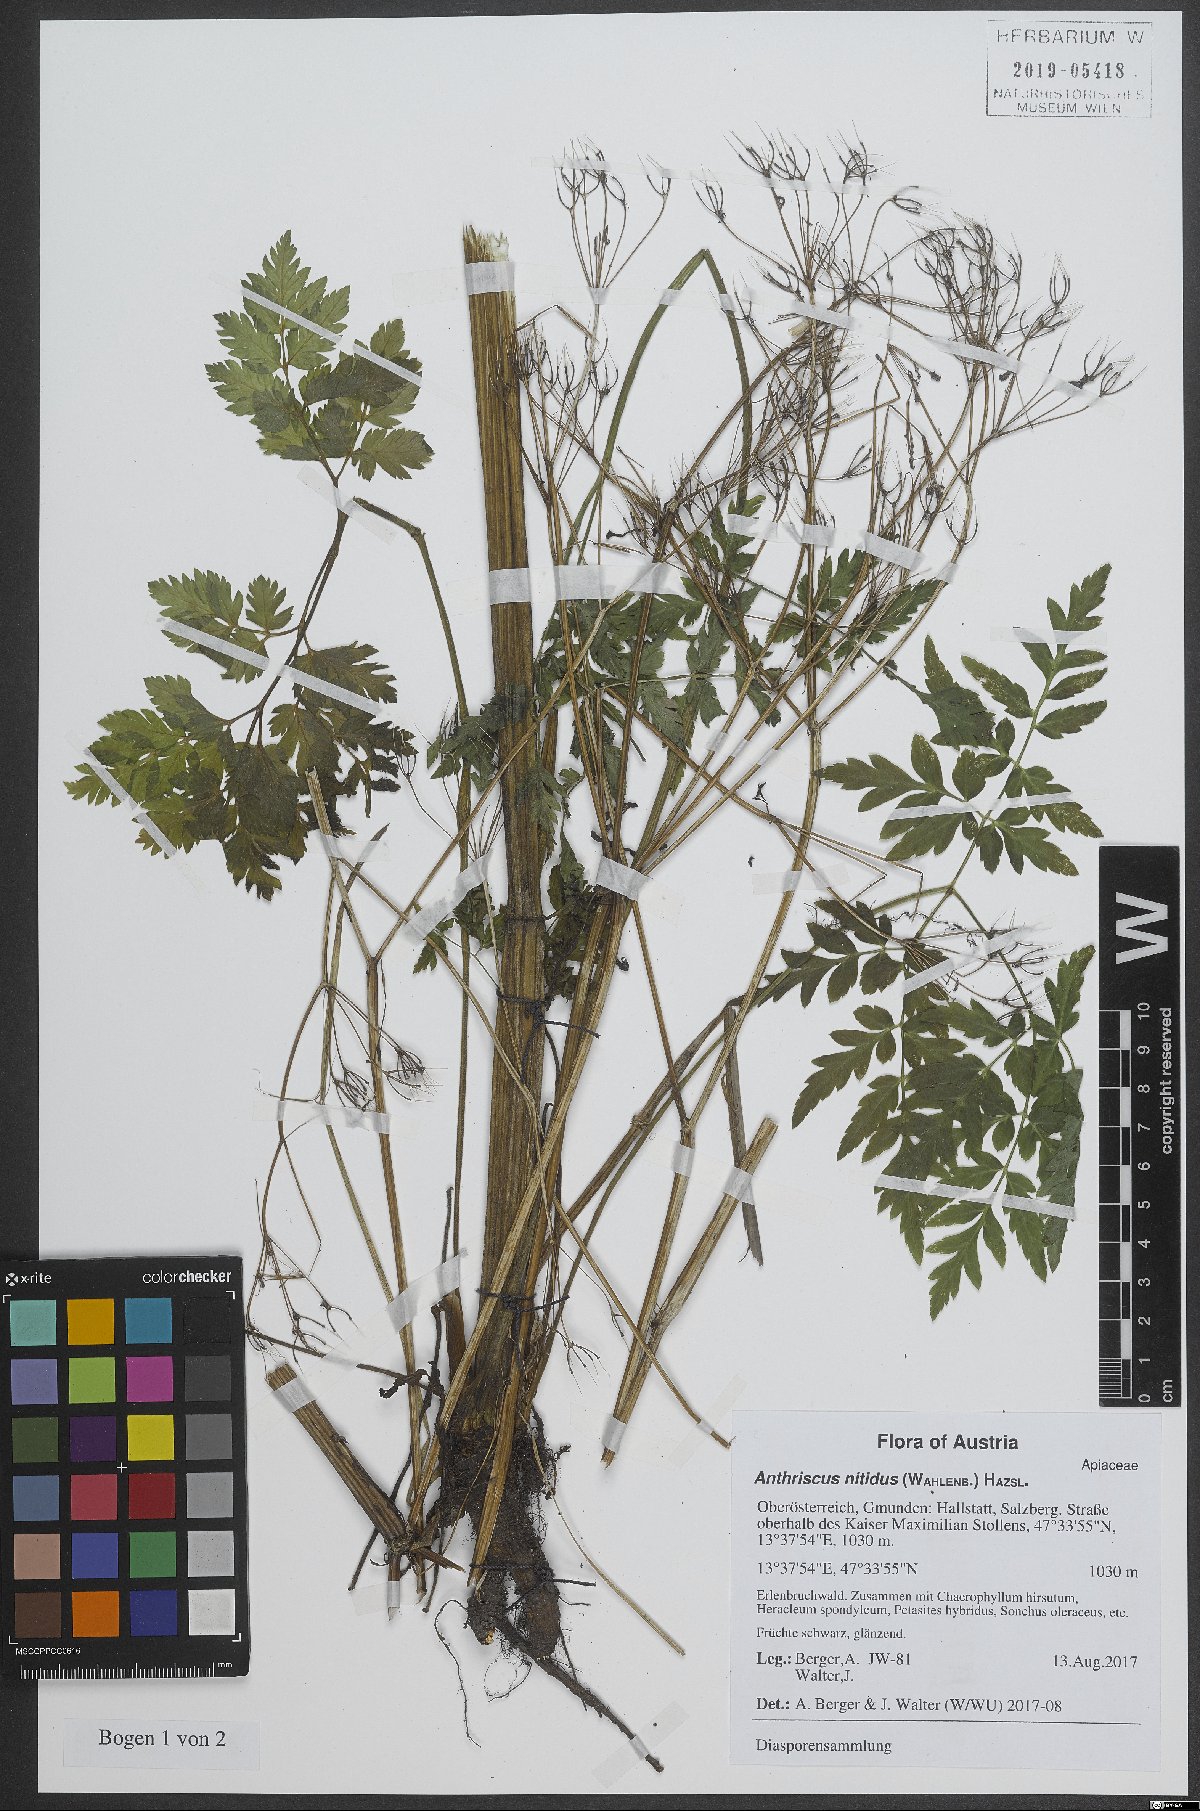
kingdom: Plantae
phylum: Tracheophyta
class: Magnoliopsida
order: Apiales
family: Apiaceae
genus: Anthriscus
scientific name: Anthriscus nitida
